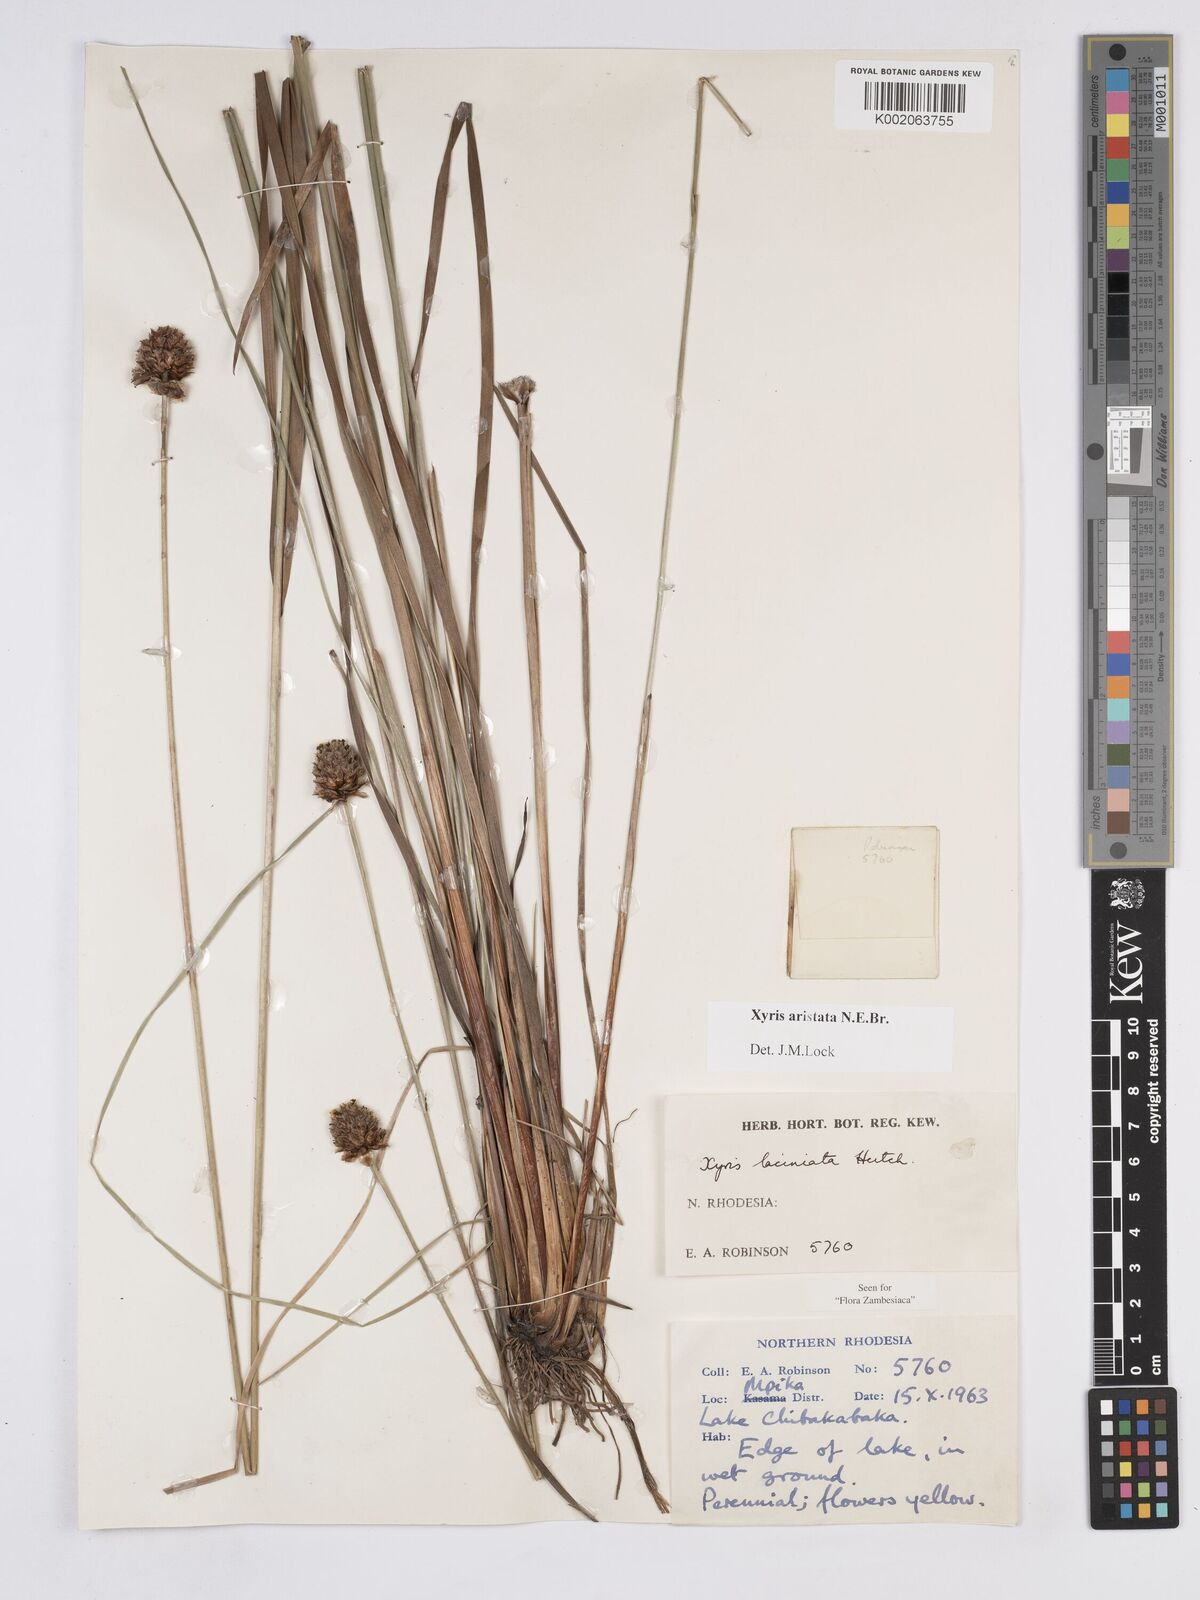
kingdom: Plantae
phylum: Tracheophyta
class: Liliopsida
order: Poales
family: Xyridaceae
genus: Xyris
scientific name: Xyris aristata
